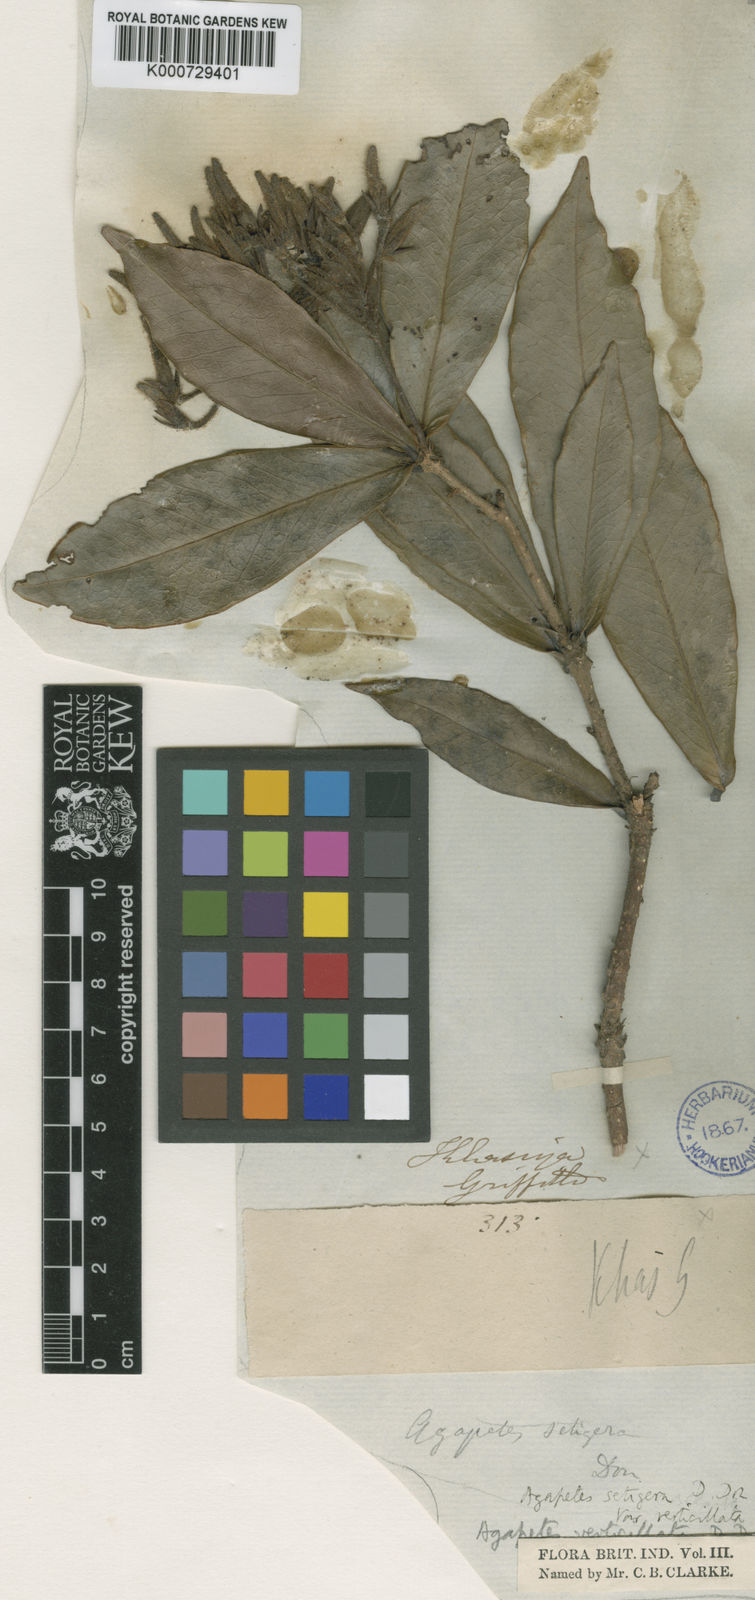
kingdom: Plantae
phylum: Tracheophyta
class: Magnoliopsida
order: Ericales
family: Ericaceae
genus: Agapetes
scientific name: Agapetes setigera
